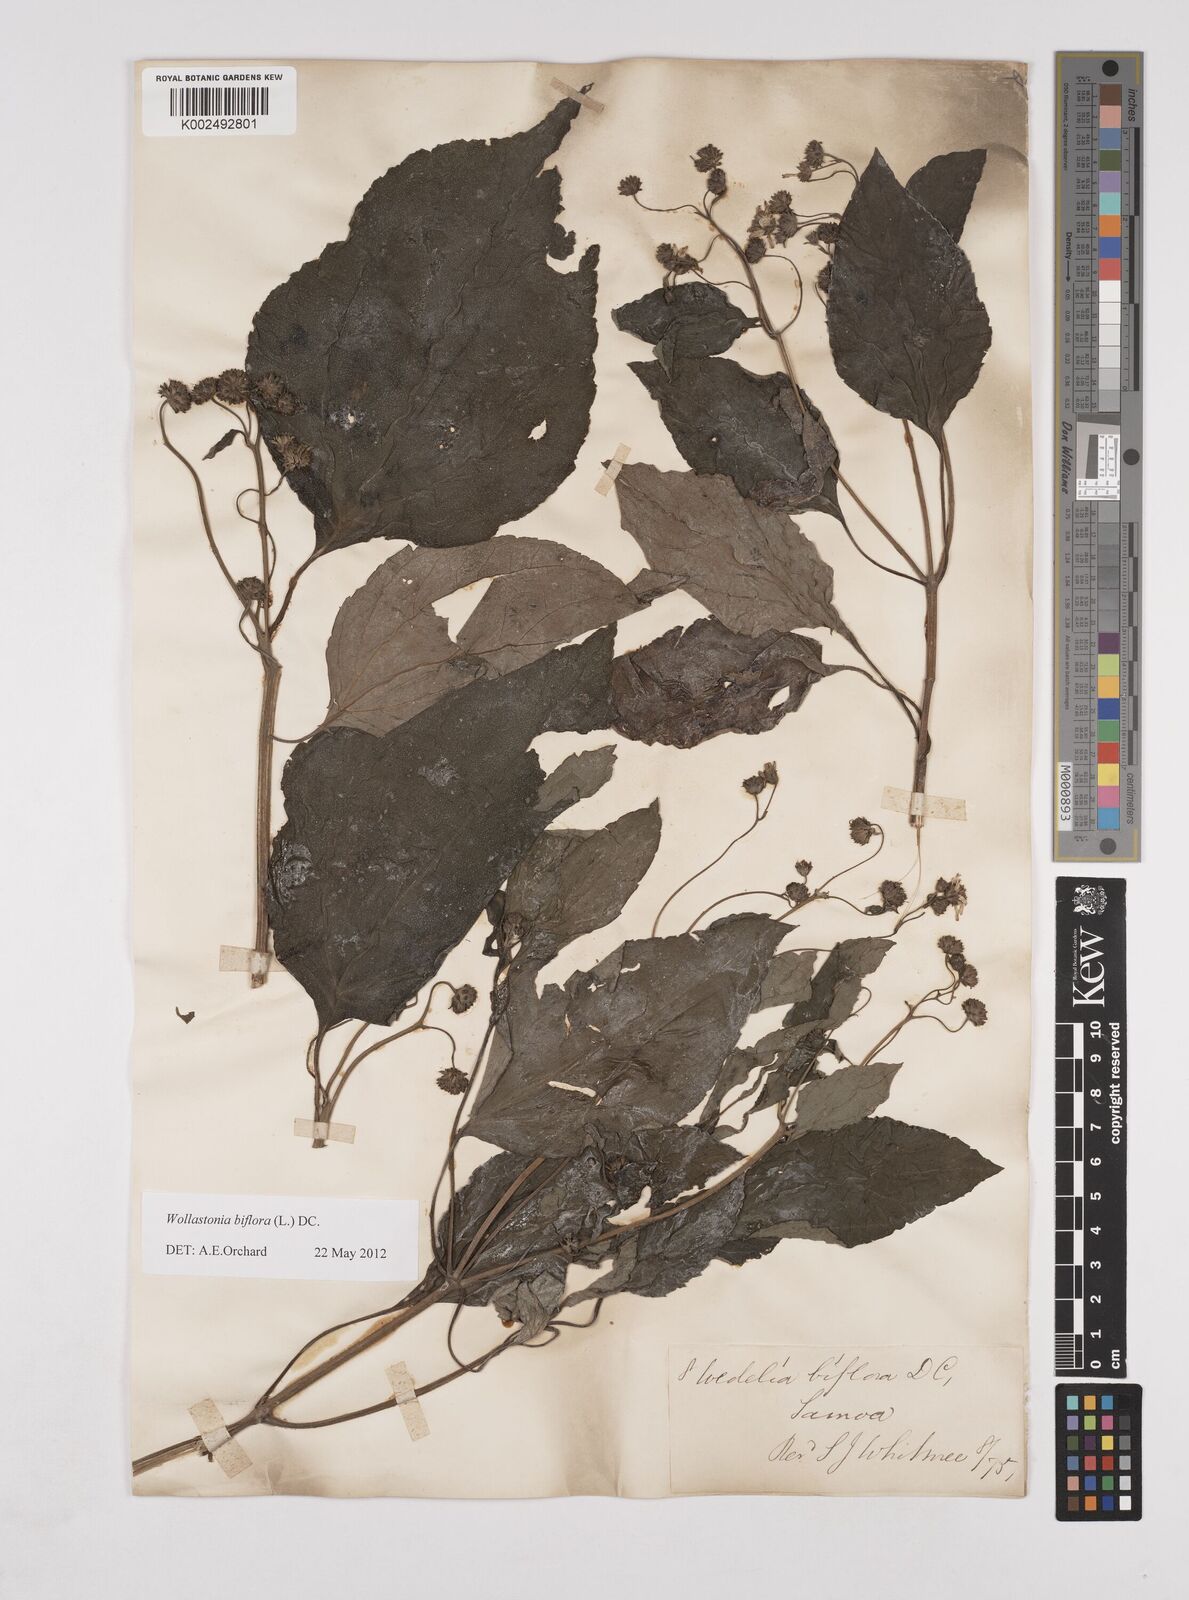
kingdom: Plantae
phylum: Tracheophyta
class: Magnoliopsida
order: Asterales
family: Asteraceae
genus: Wollastonia
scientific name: Wollastonia biflora
